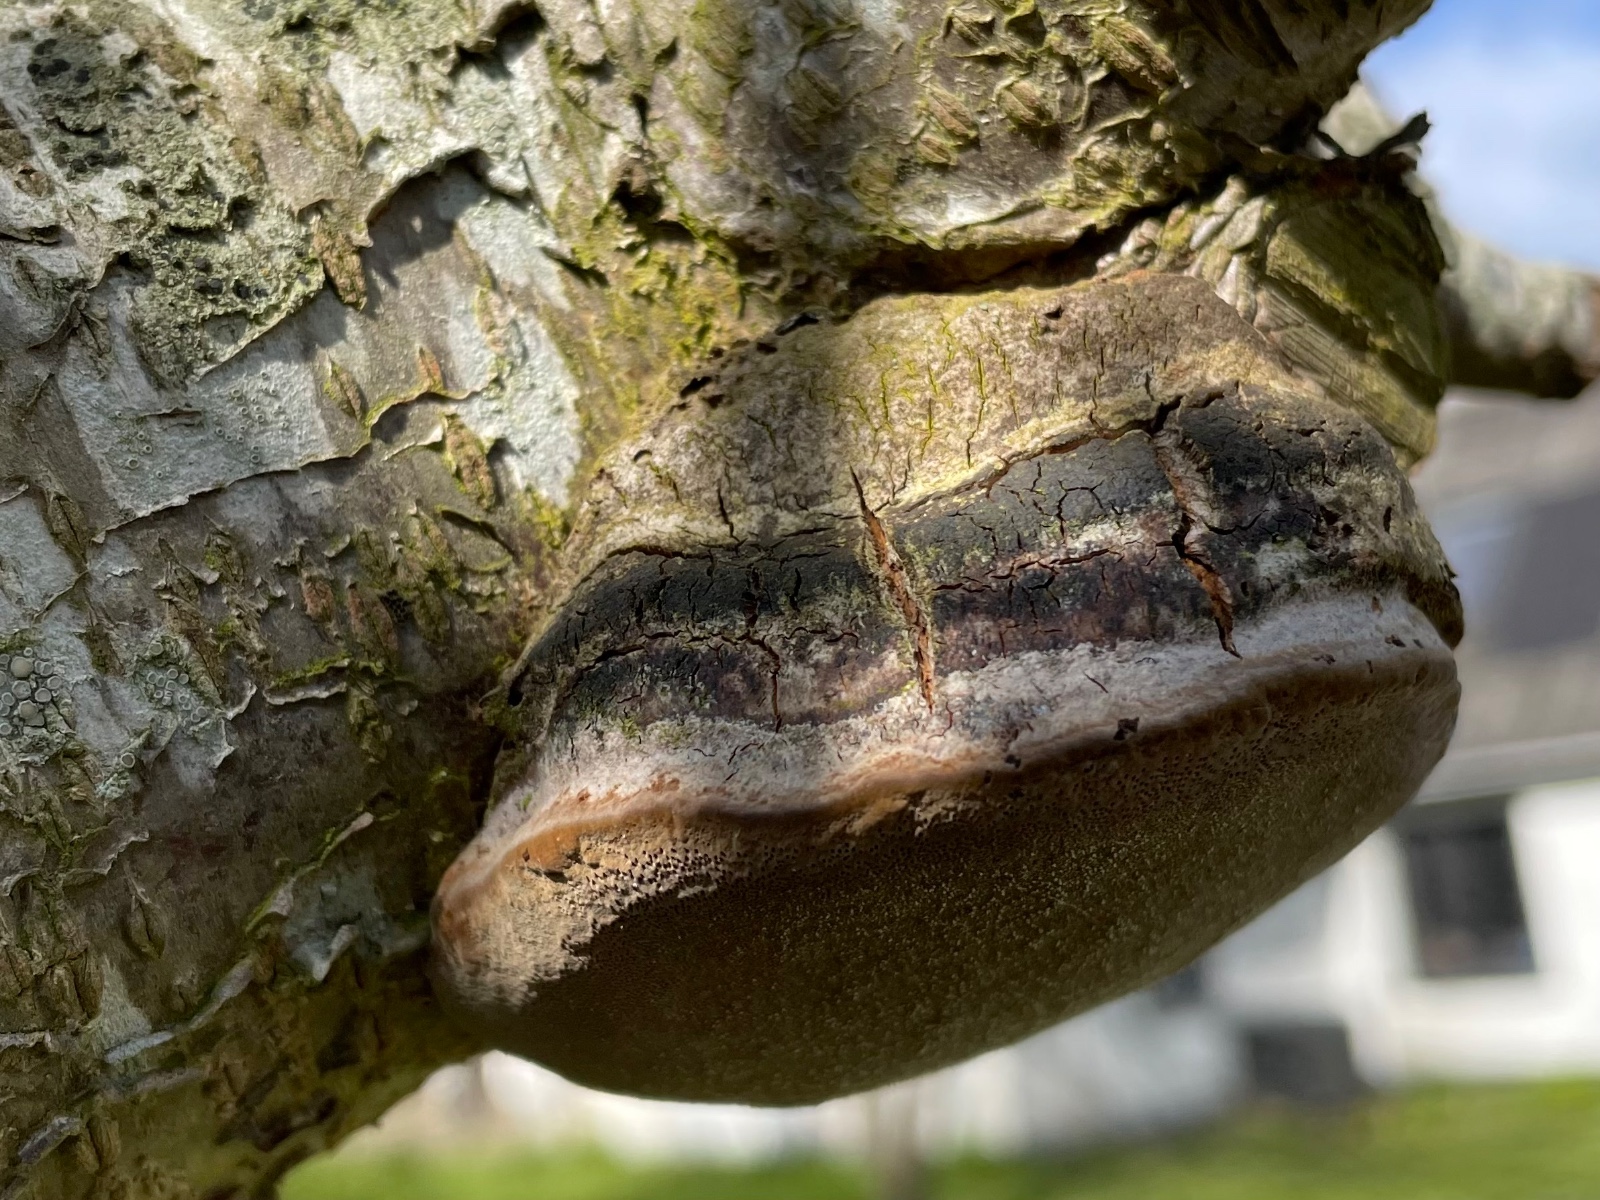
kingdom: Fungi
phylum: Basidiomycota
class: Agaricomycetes
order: Hymenochaetales
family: Hymenochaetaceae
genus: Phellinus
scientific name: Phellinus pomaceus
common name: blomme-ildporesvamp
